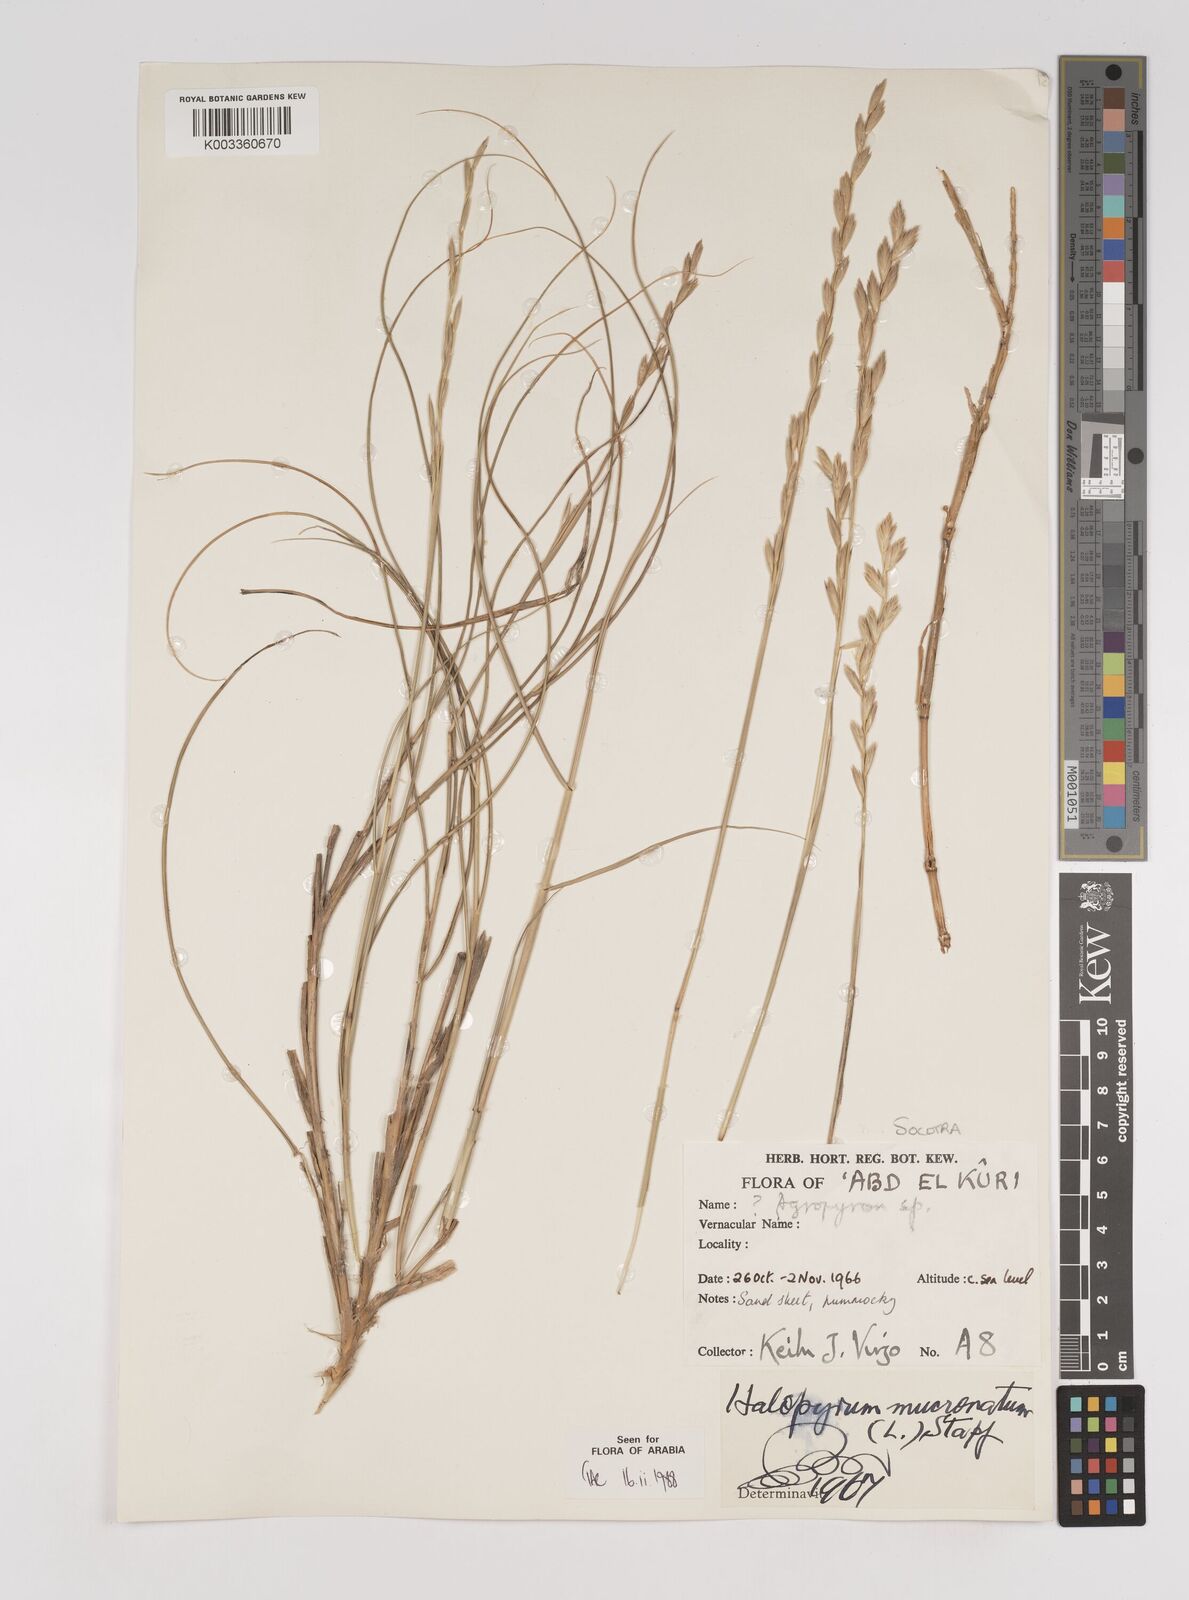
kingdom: Plantae
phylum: Tracheophyta
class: Liliopsida
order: Poales
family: Poaceae
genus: Halopyrum
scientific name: Halopyrum mucronatum
